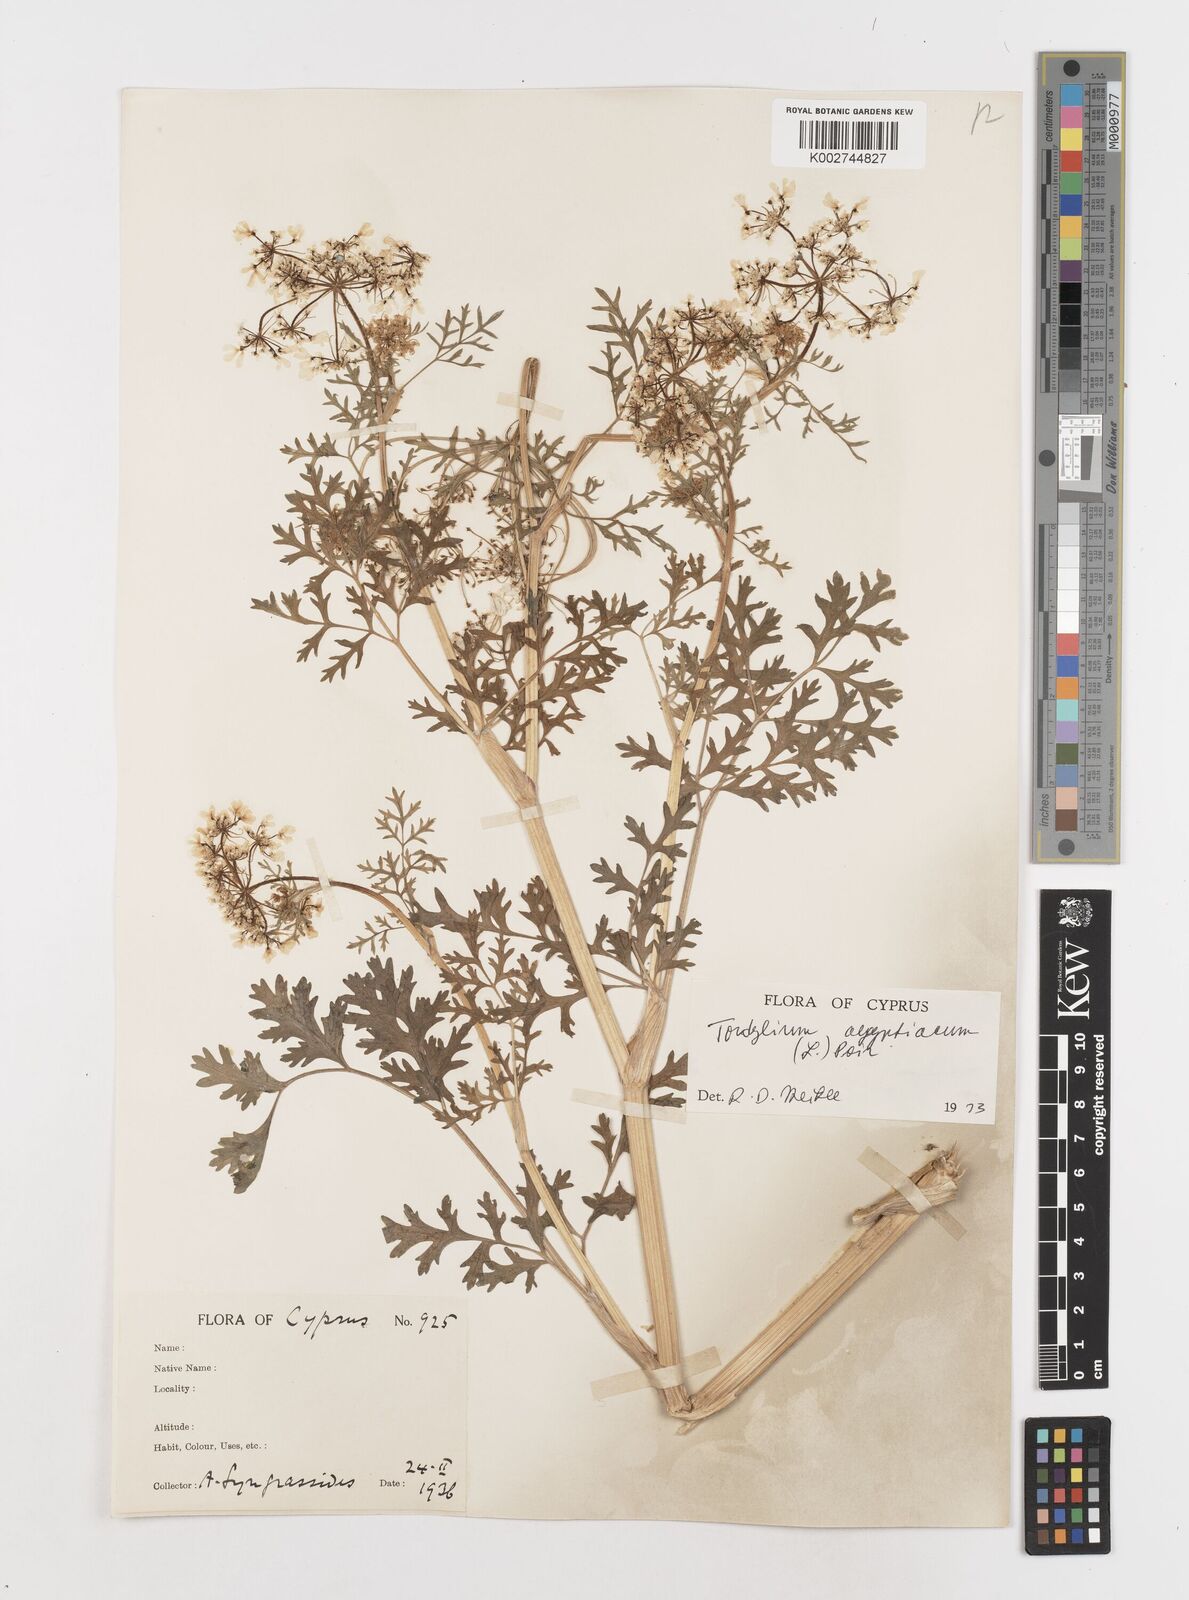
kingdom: Plantae
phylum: Tracheophyta
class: Magnoliopsida
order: Apiales
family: Apiaceae
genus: Tordylium
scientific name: Tordylium aegyptiacum
